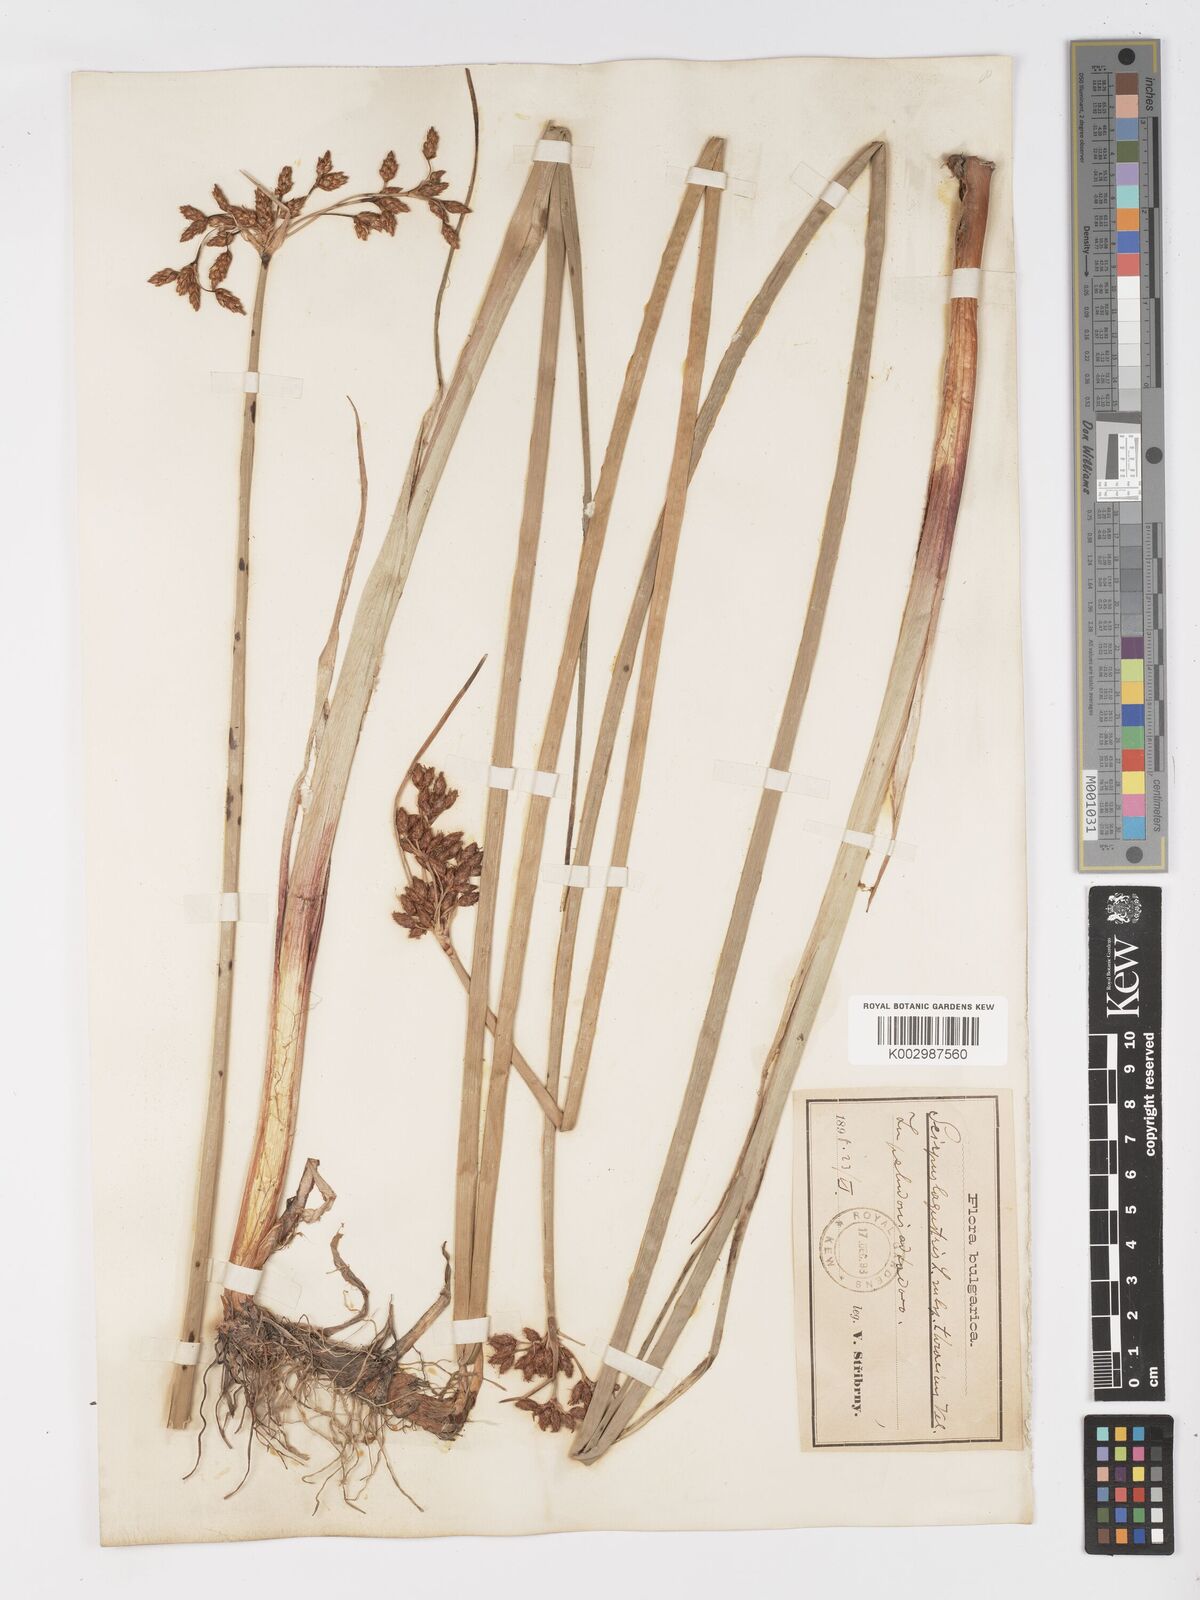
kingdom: Plantae
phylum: Tracheophyta
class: Liliopsida
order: Poales
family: Cyperaceae
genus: Schoenoplectus
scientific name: Schoenoplectus lacustris
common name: Common club-rush
